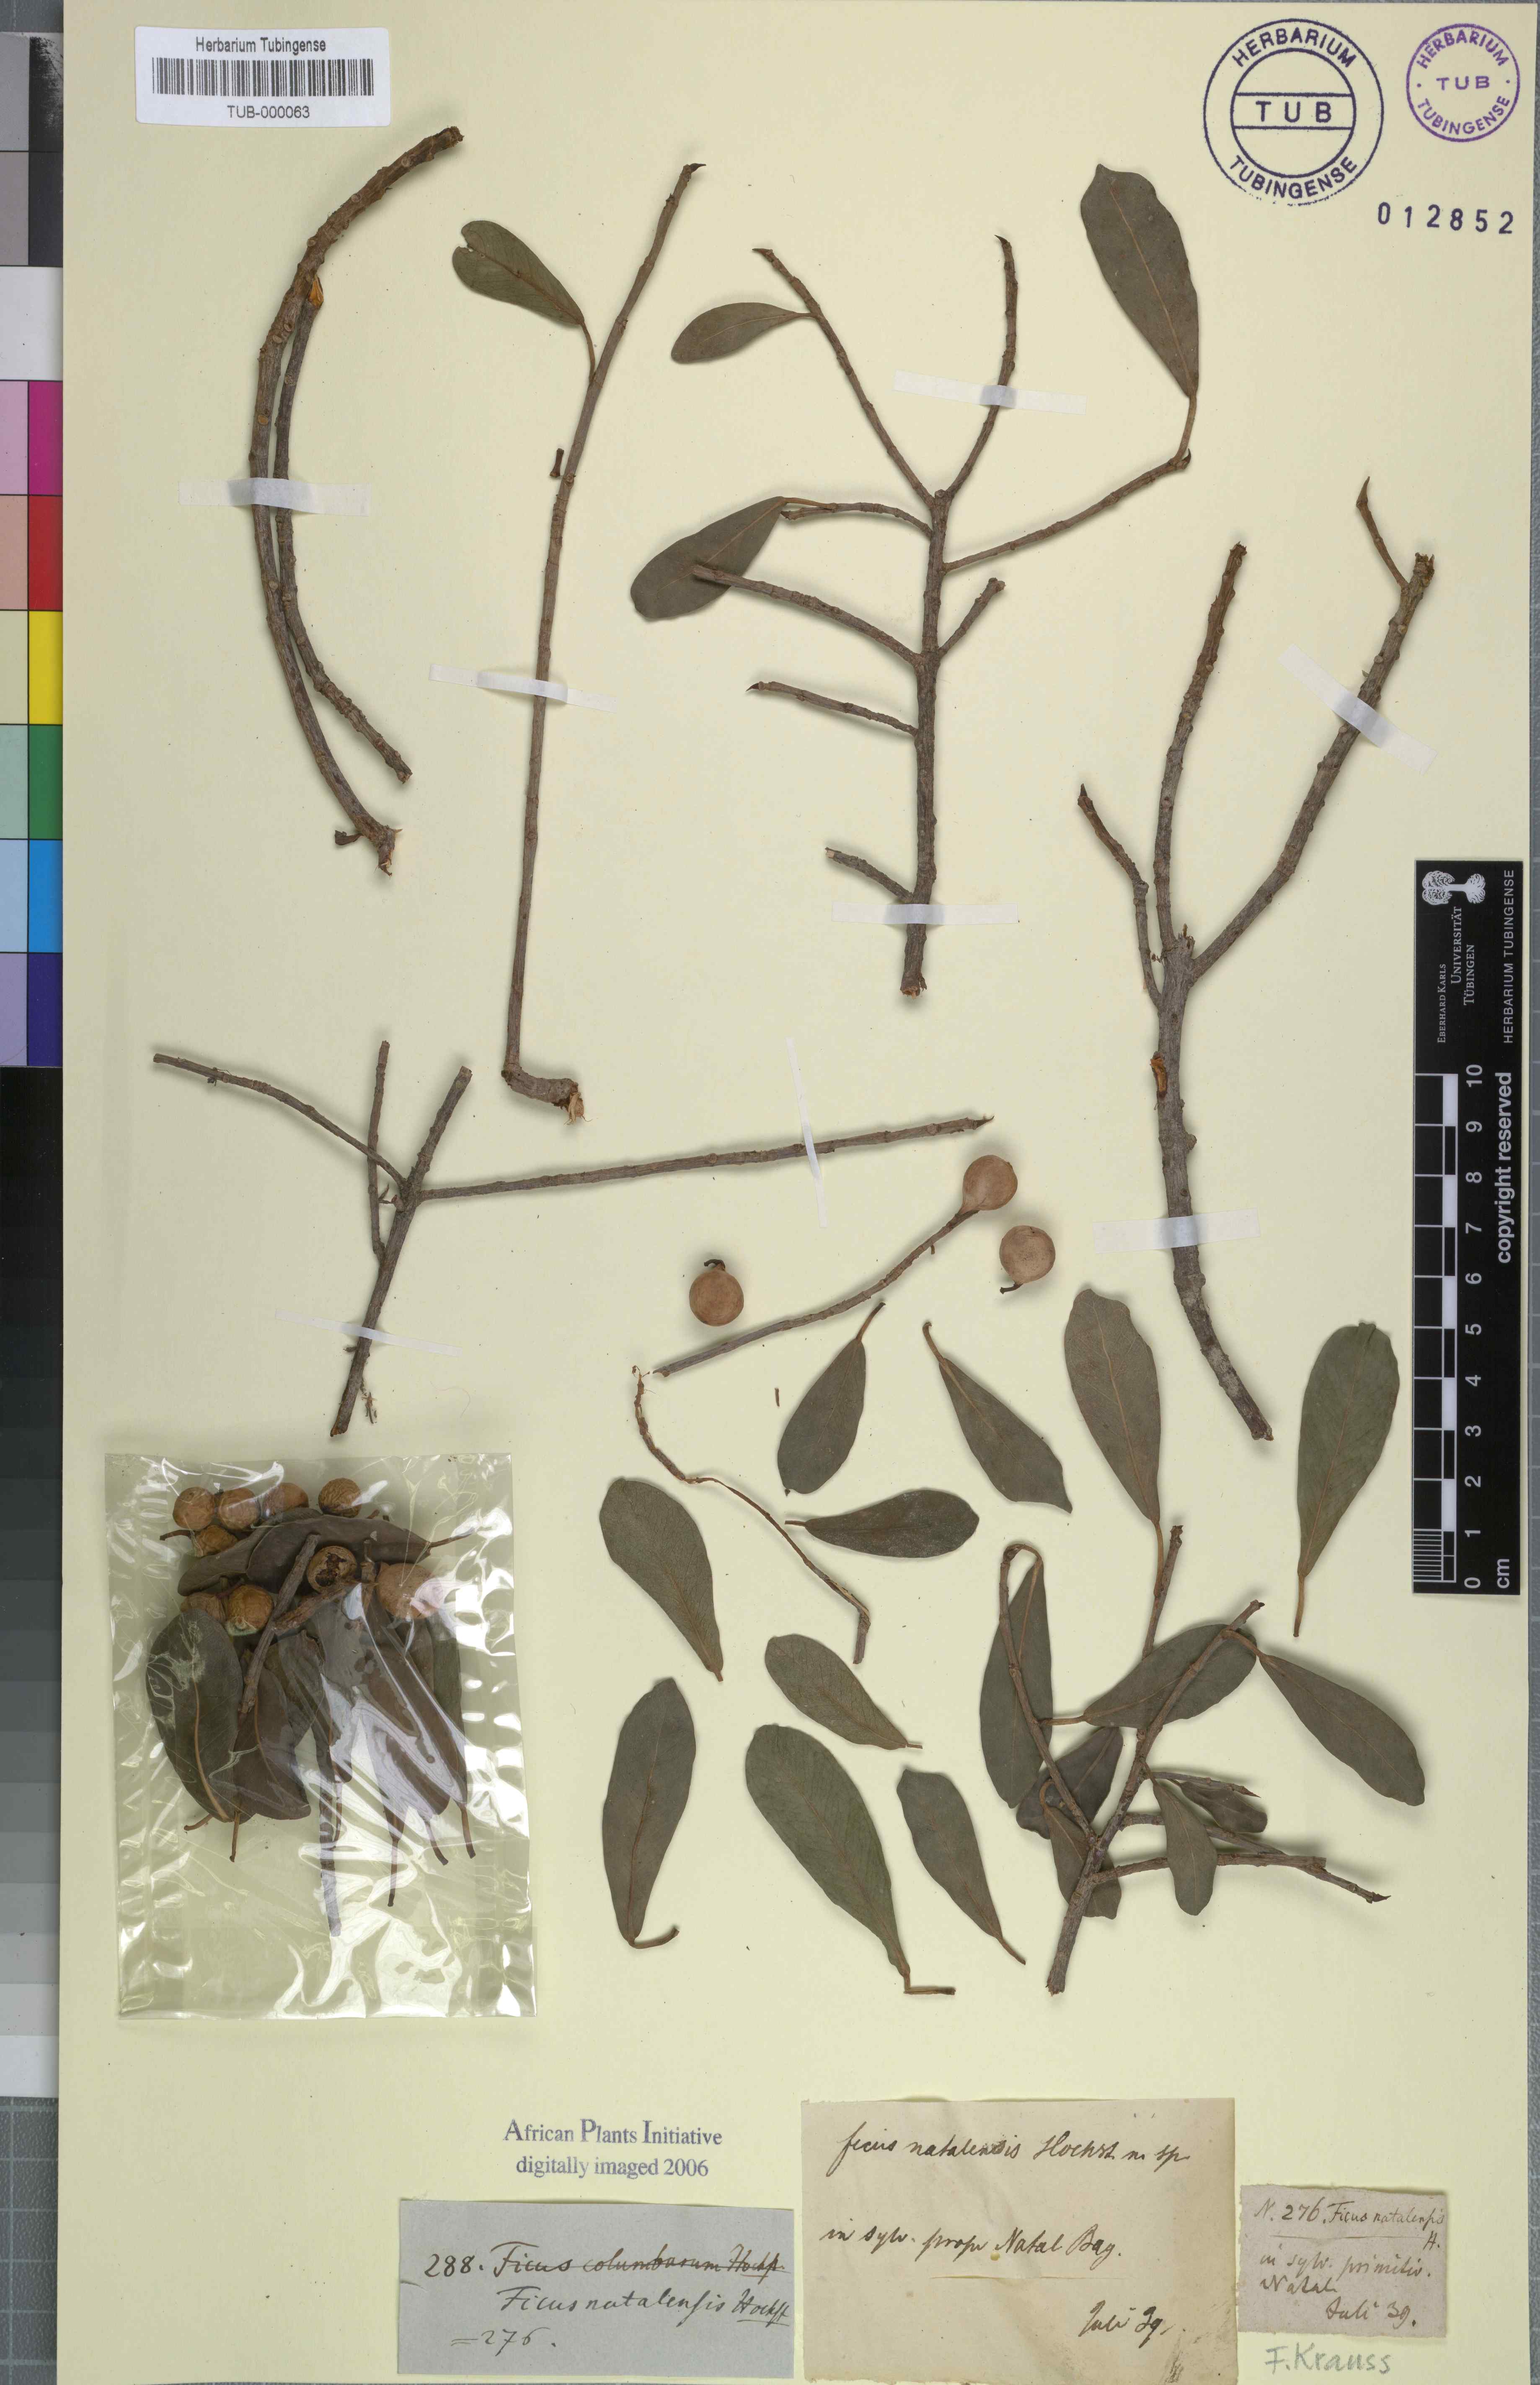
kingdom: Plantae
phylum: Tracheophyta
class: Magnoliopsida
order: Rosales
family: Moraceae
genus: Ficus
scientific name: Ficus natalensis
